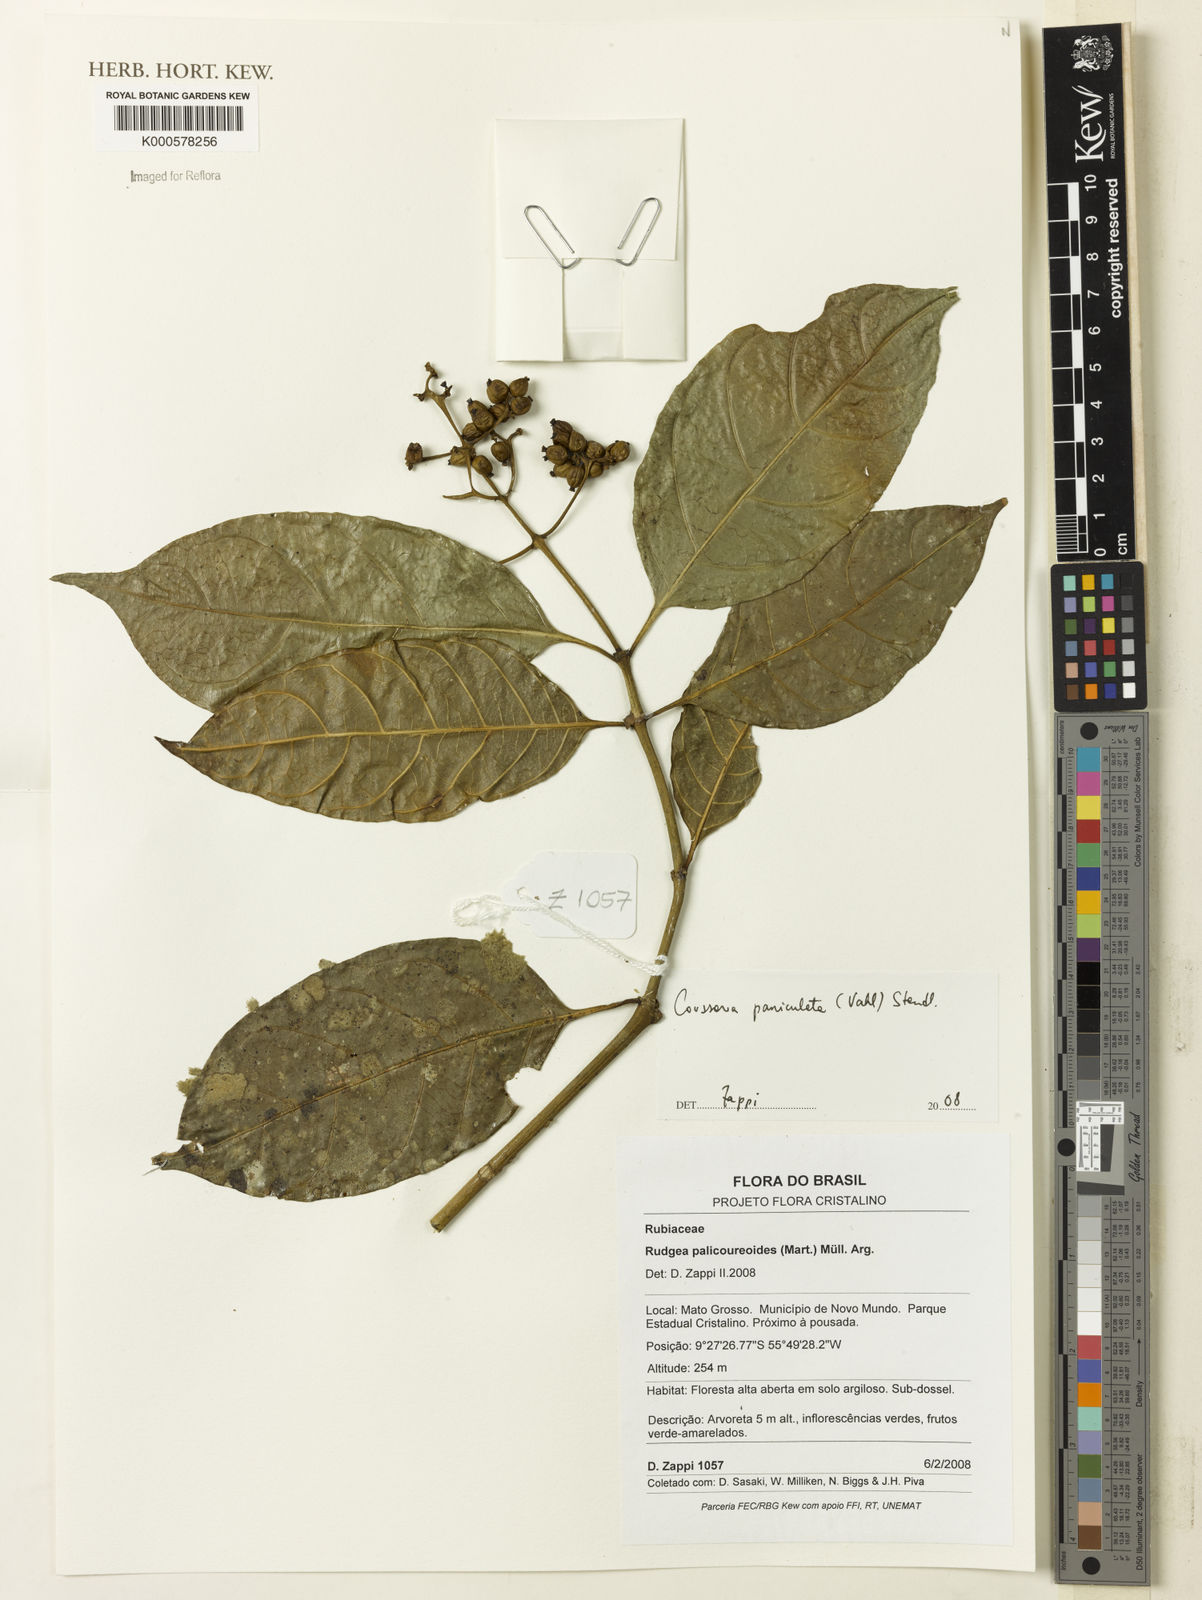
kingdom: Plantae
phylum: Tracheophyta
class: Magnoliopsida
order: Gentianales
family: Rubiaceae
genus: Coussarea
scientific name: Coussarea paniculata
